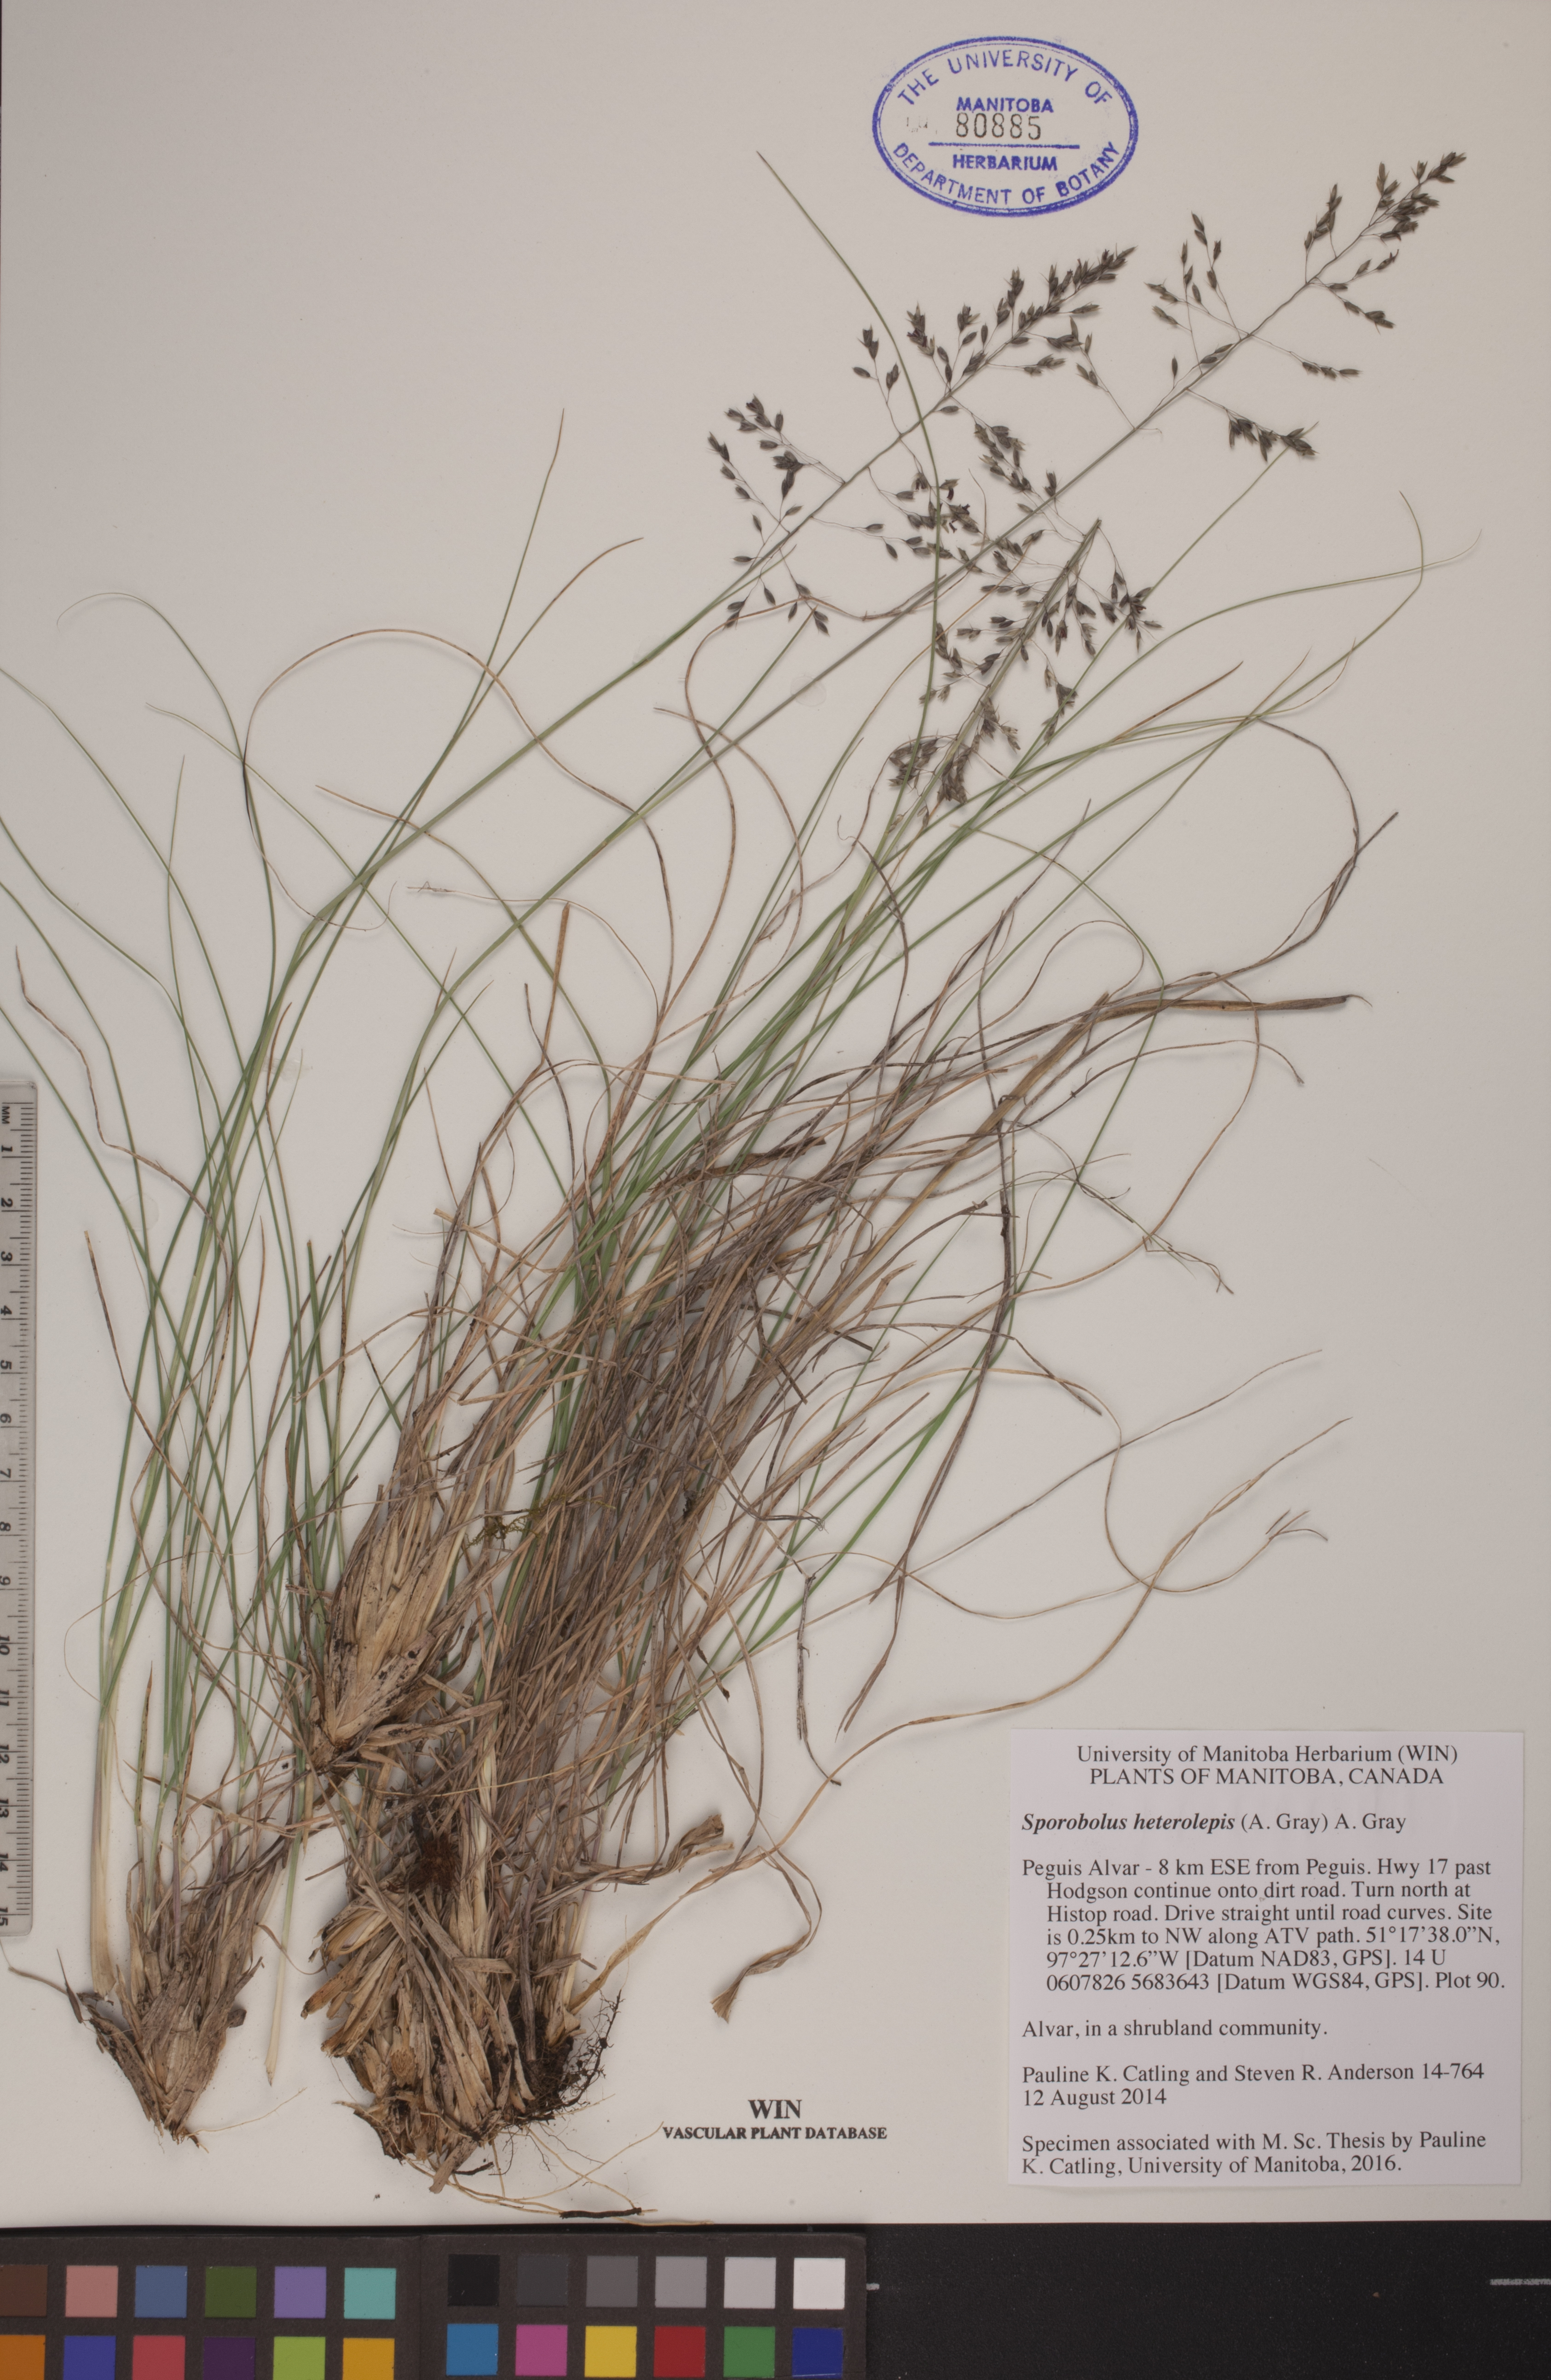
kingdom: Plantae
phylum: Tracheophyta
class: Liliopsida
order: Poales
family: Poaceae
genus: Sporobolus
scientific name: Sporobolus heterolepis
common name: Prairie dropseed
